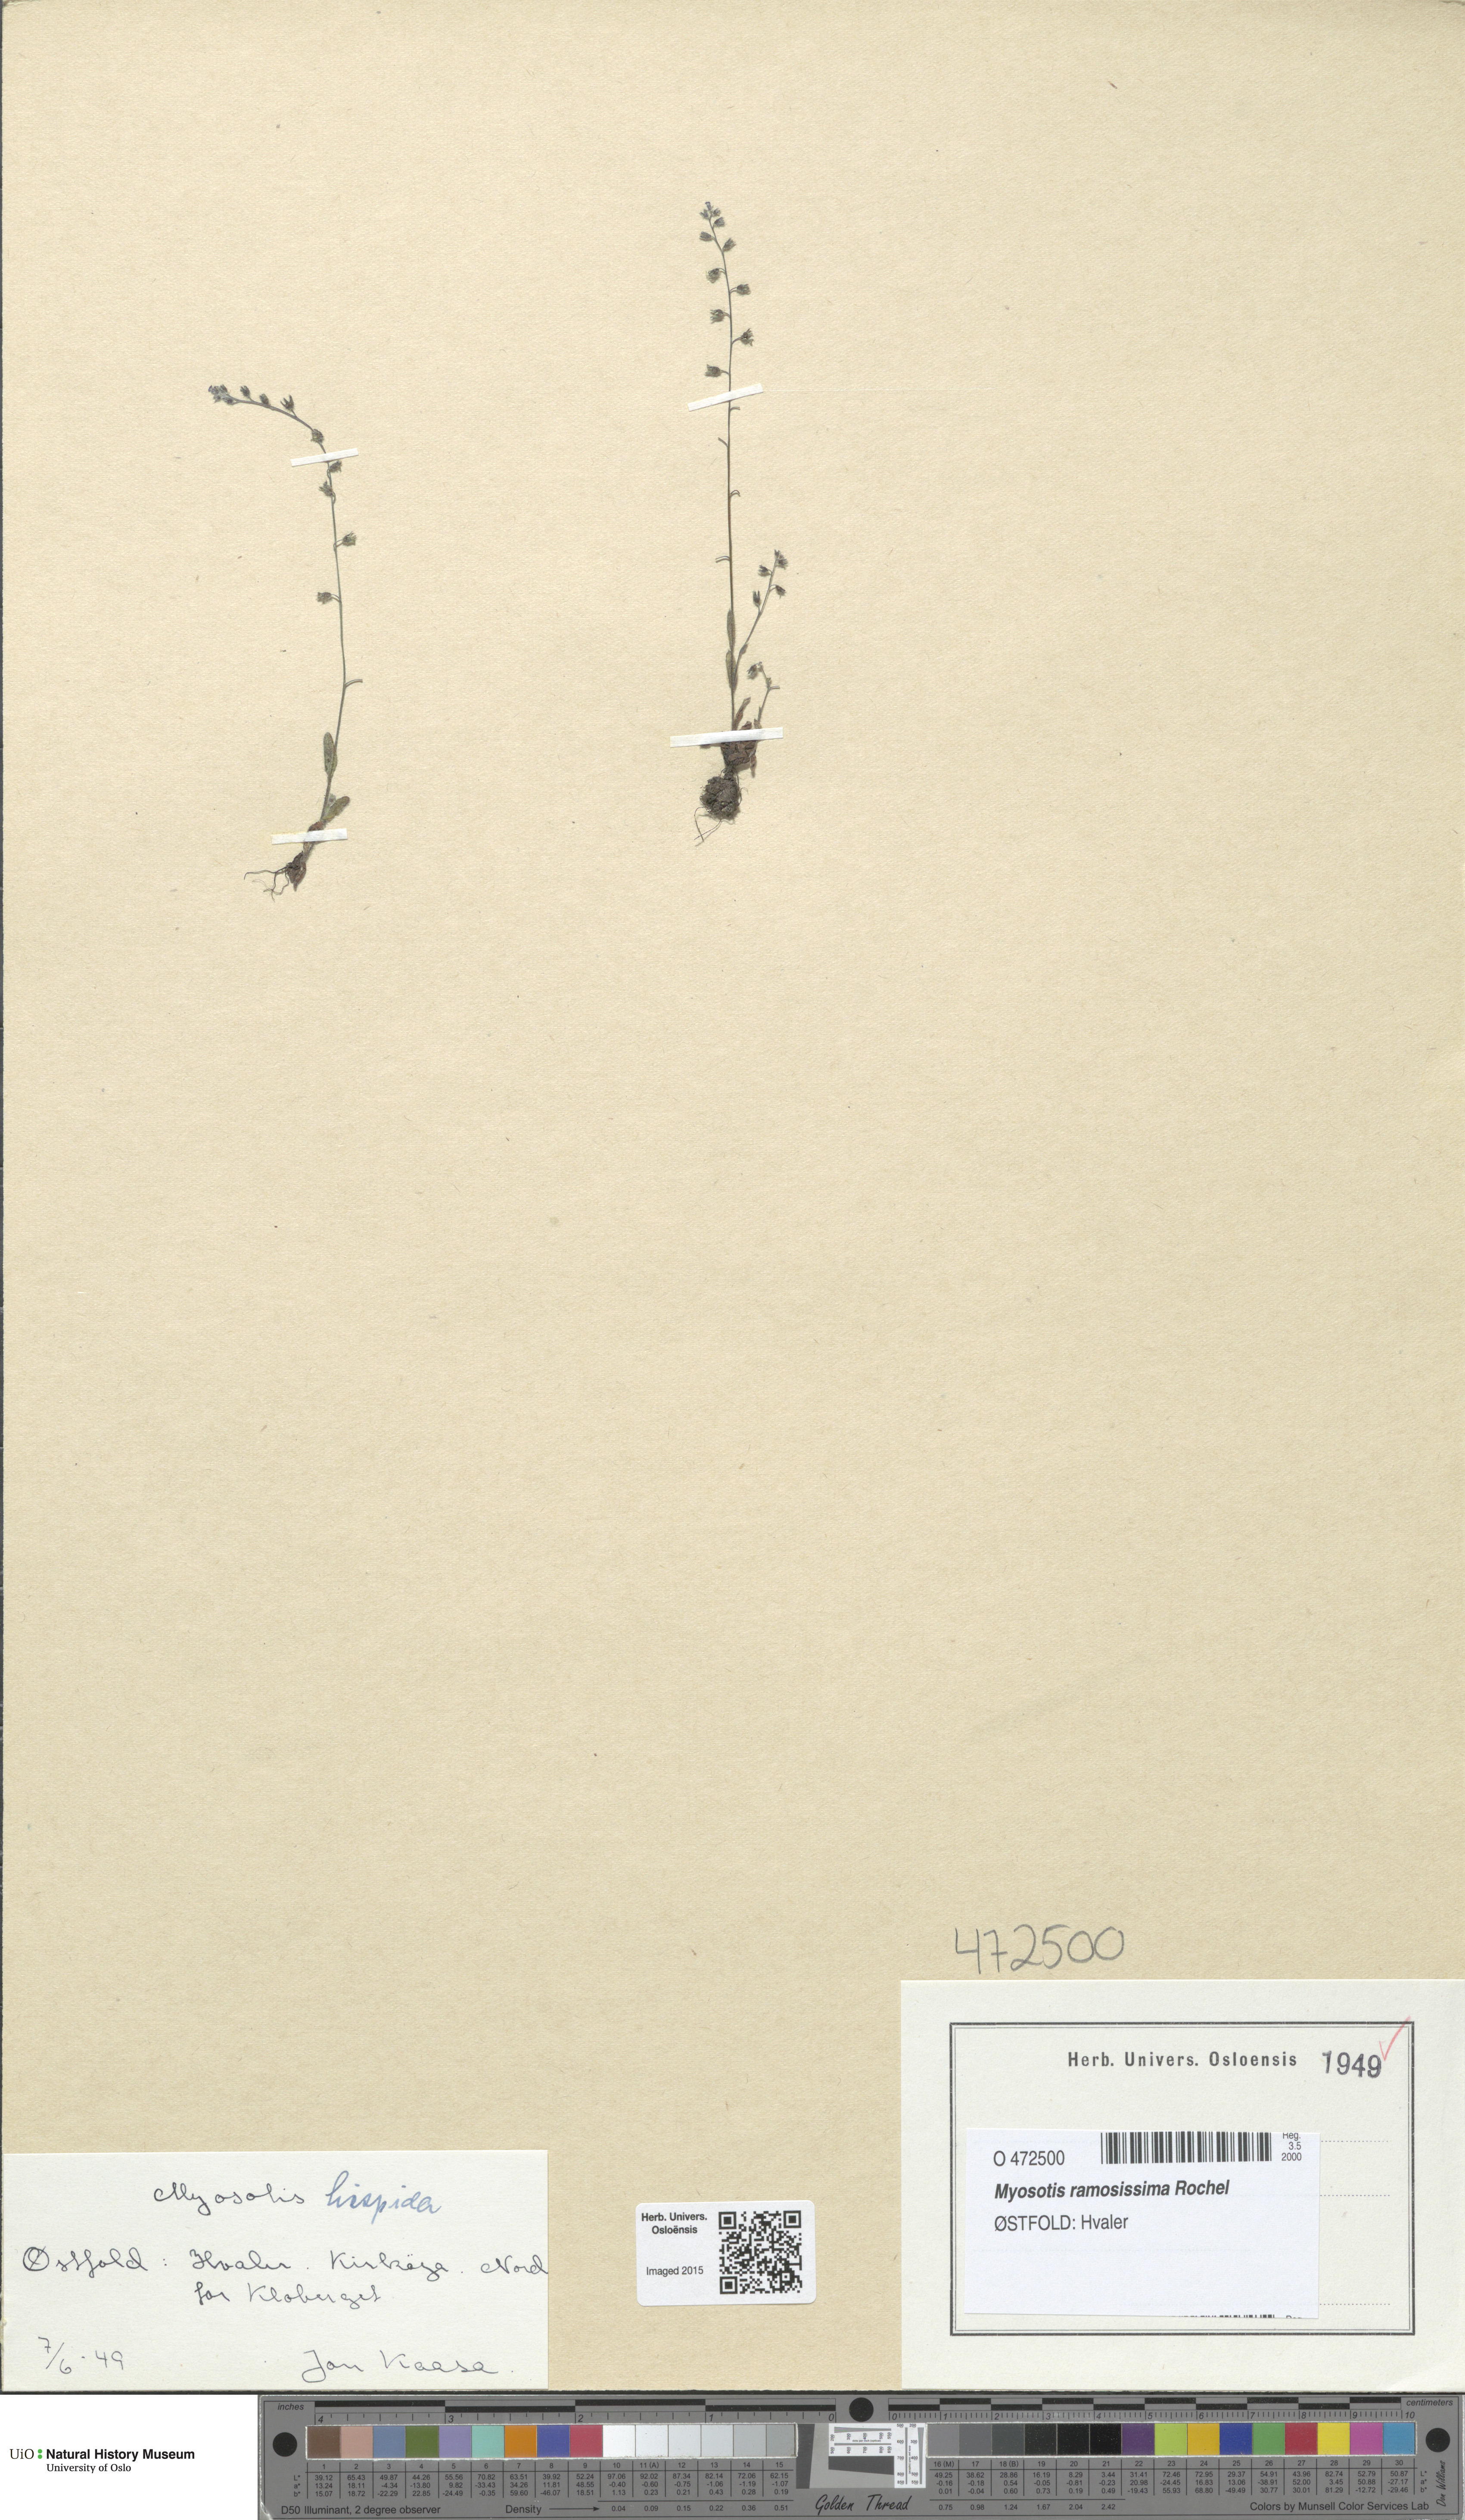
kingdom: Plantae
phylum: Tracheophyta
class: Magnoliopsida
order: Boraginales
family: Boraginaceae
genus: Myosotis
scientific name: Myosotis ramosissima
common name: Early forget-me-not
